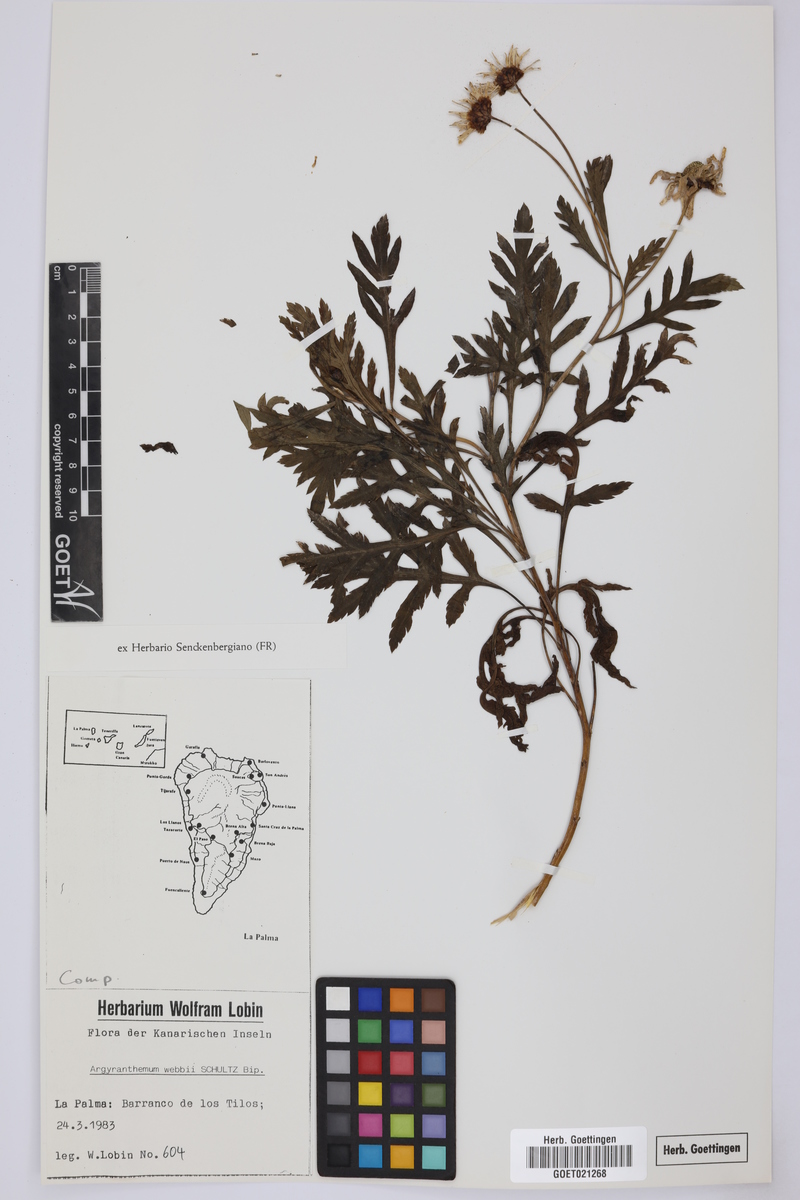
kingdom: Plantae
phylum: Tracheophyta
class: Magnoliopsida
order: Asterales
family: Asteraceae
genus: Argyranthemum
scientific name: Argyranthemum webbii
